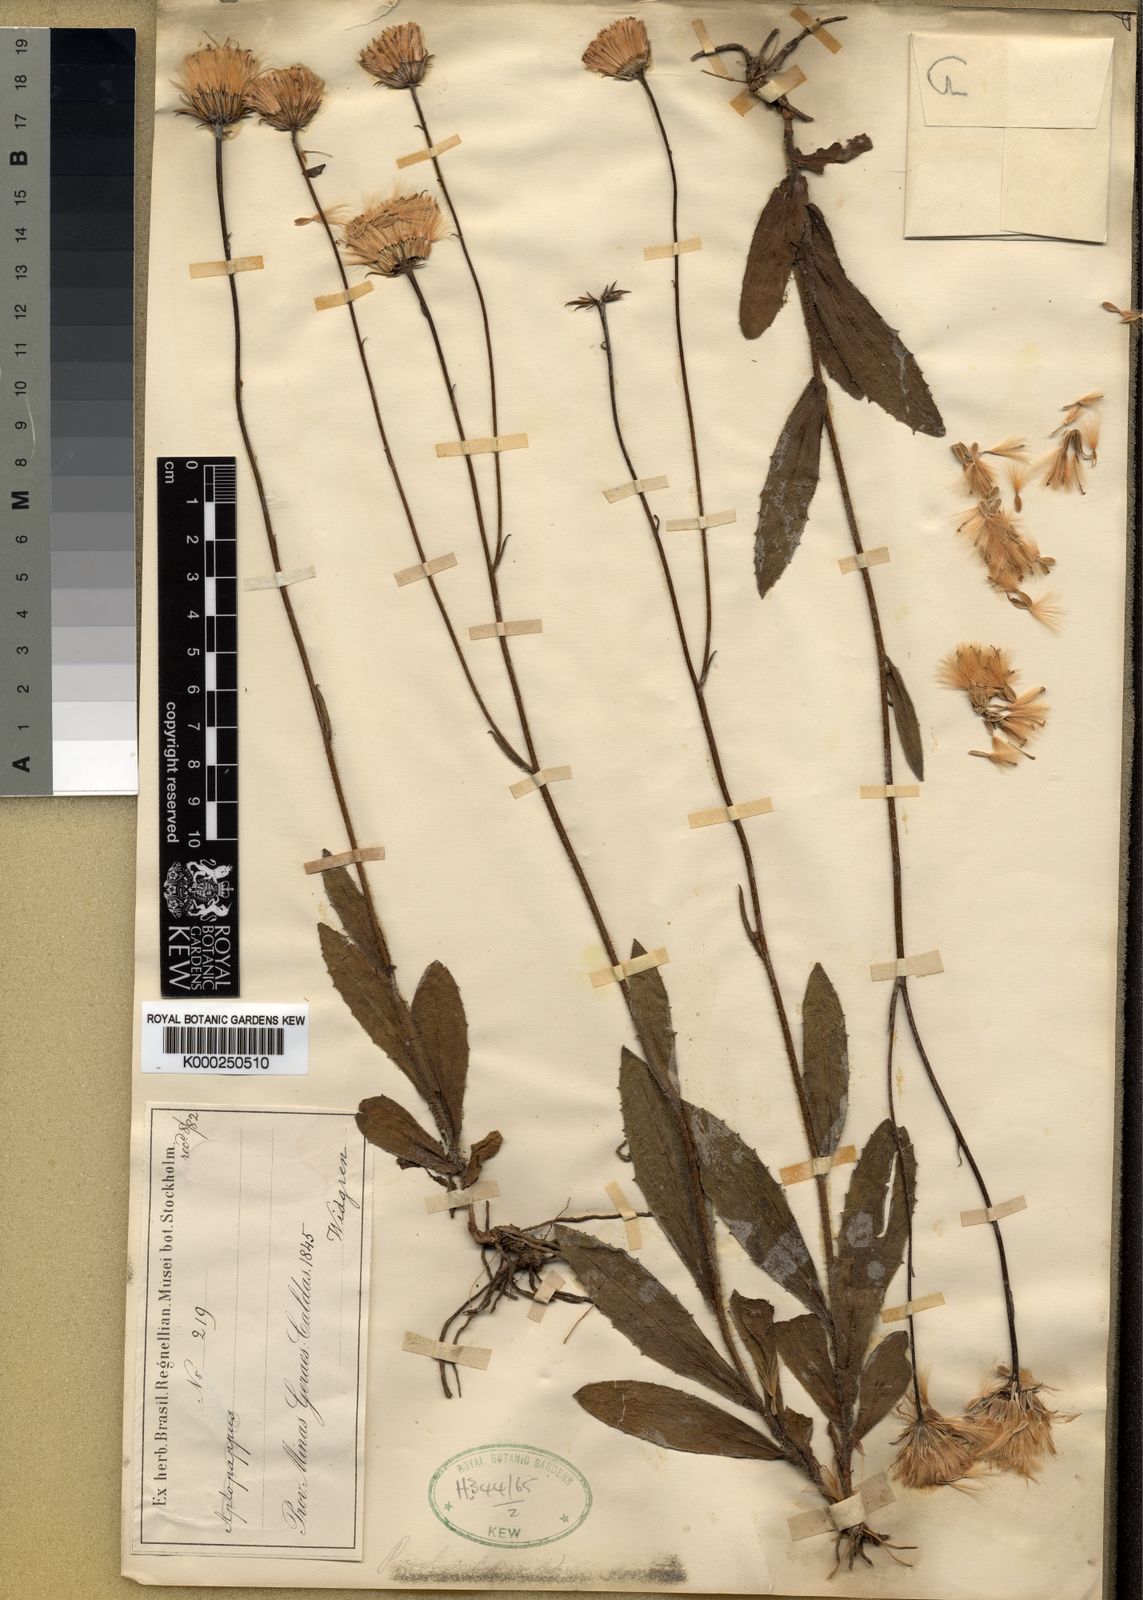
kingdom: Plantae
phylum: Tracheophyta
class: Magnoliopsida
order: Asterales
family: Asteraceae
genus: Podocoma
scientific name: Podocoma
